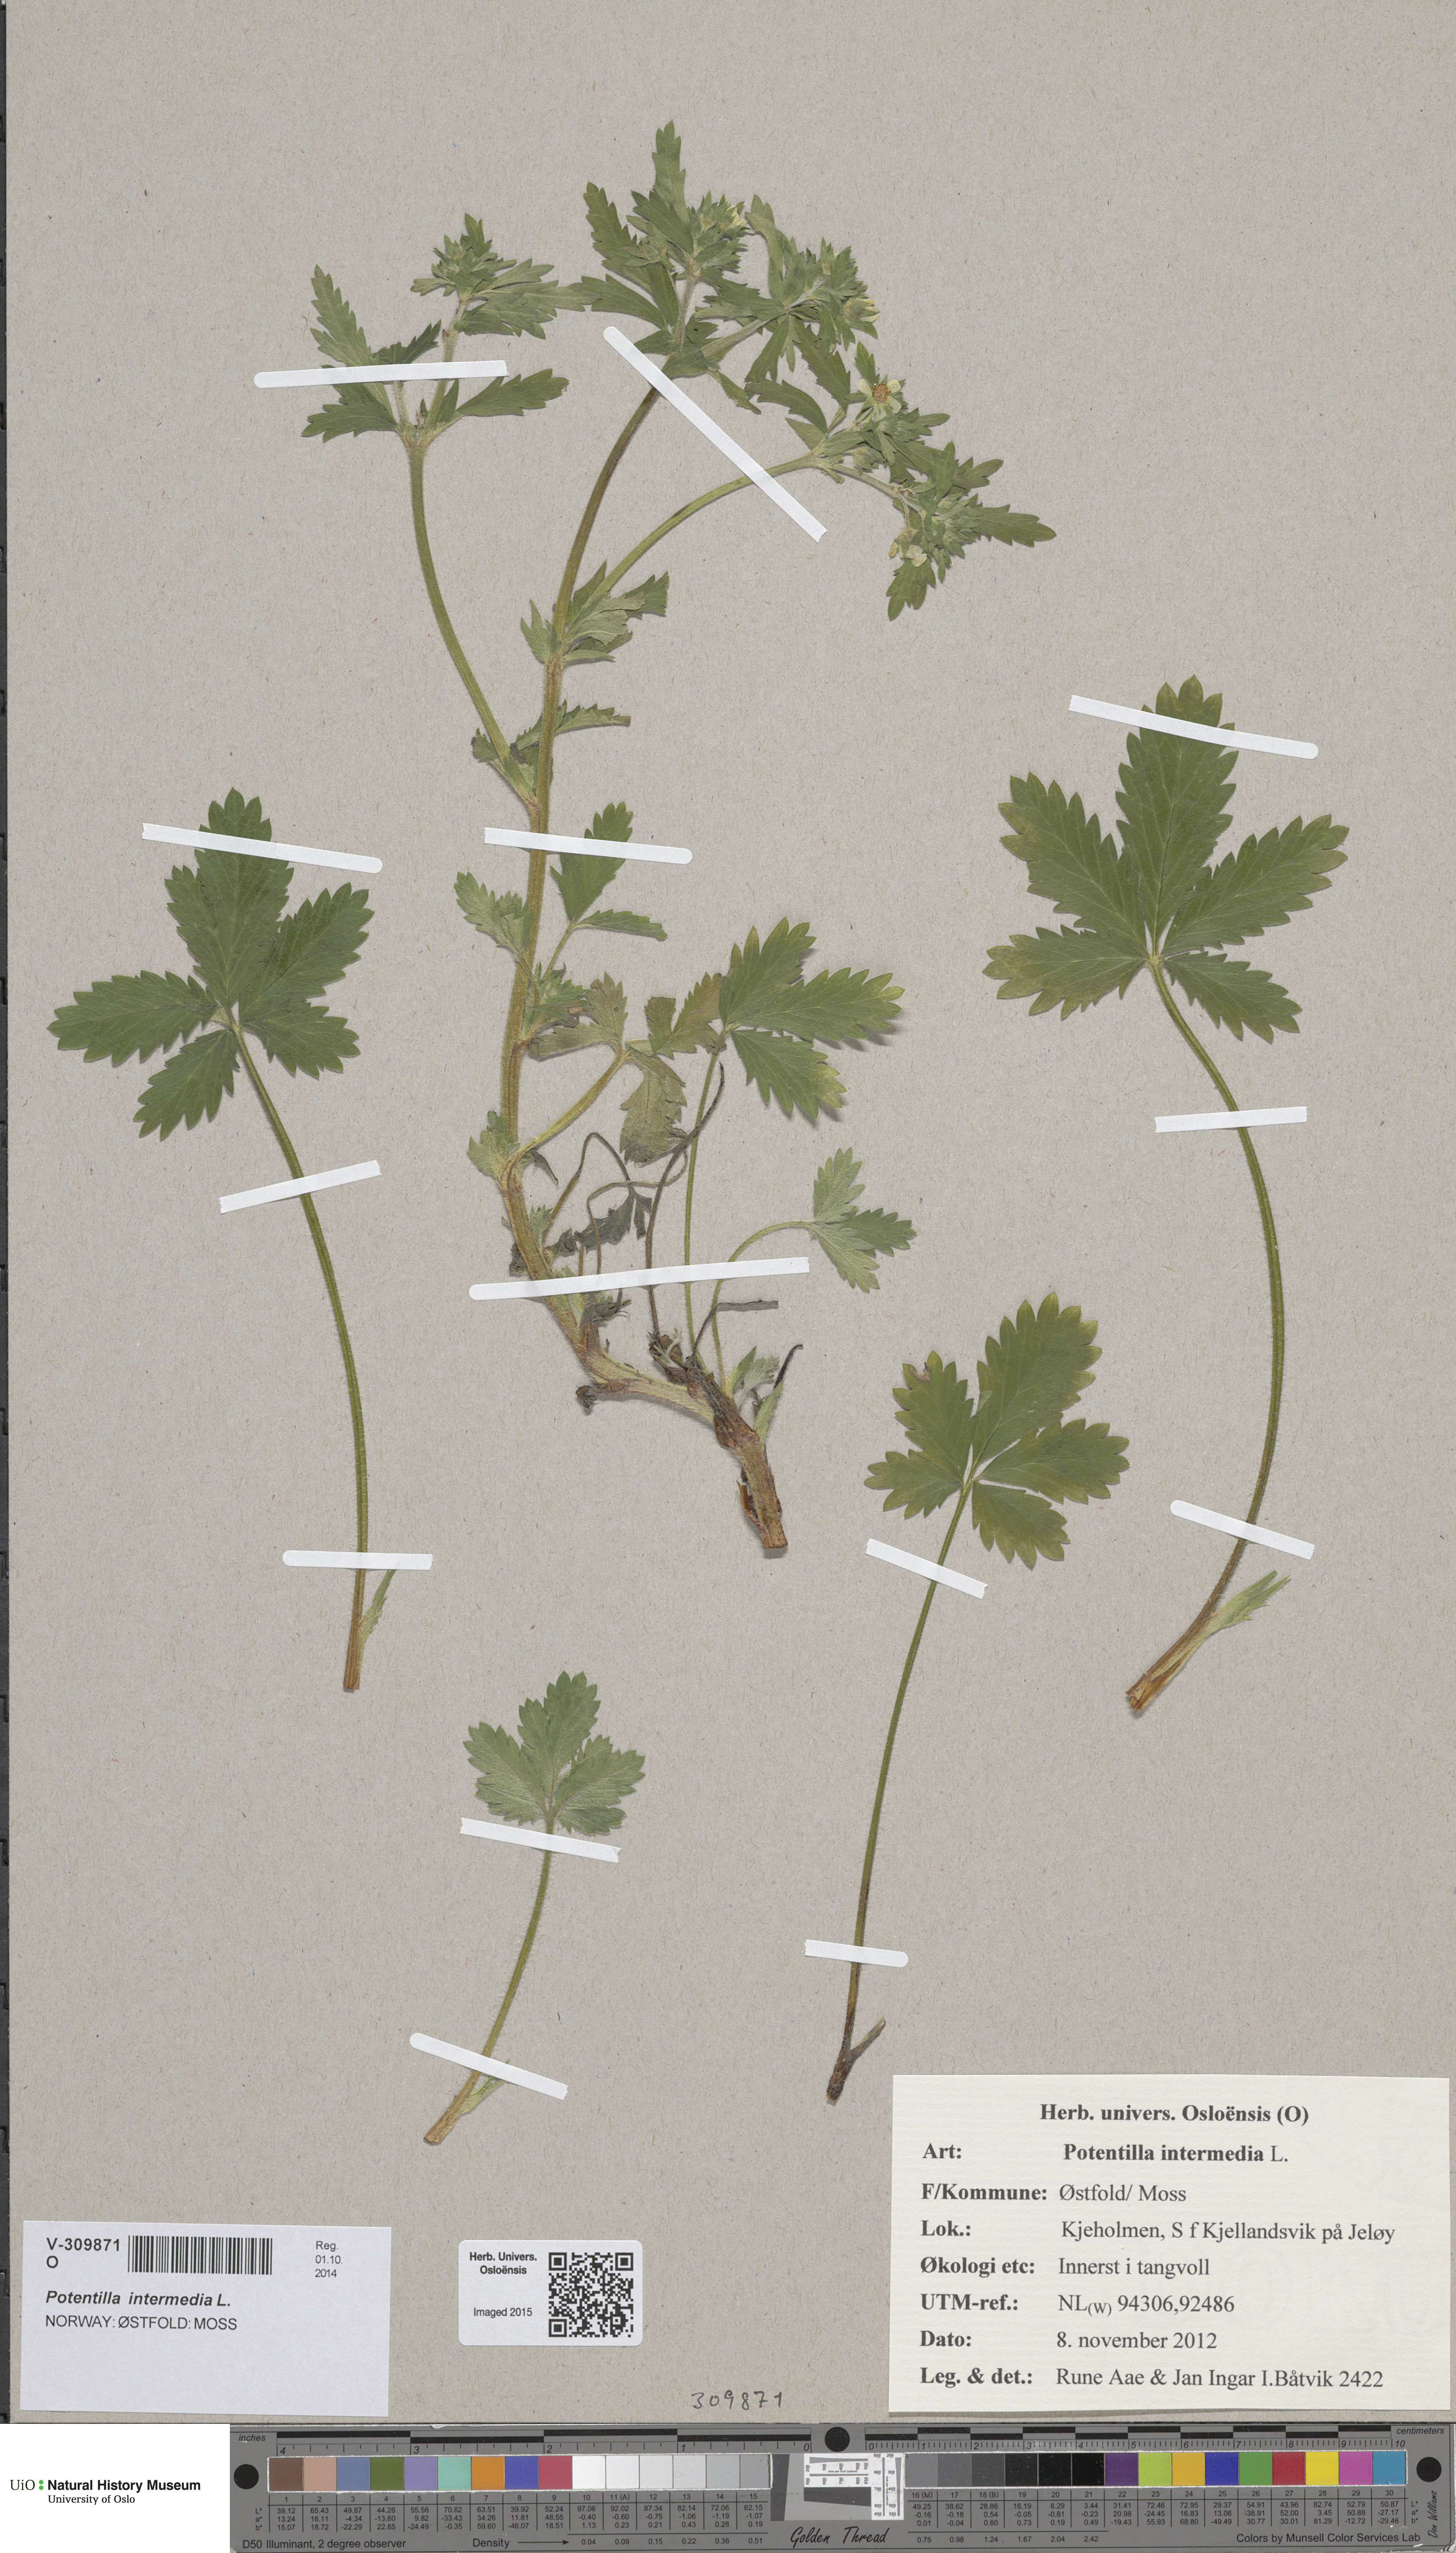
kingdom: Plantae
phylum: Tracheophyta
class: Magnoliopsida
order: Rosales
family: Rosaceae
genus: Potentilla
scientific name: Potentilla intermedia
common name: Downy cinquefoil
